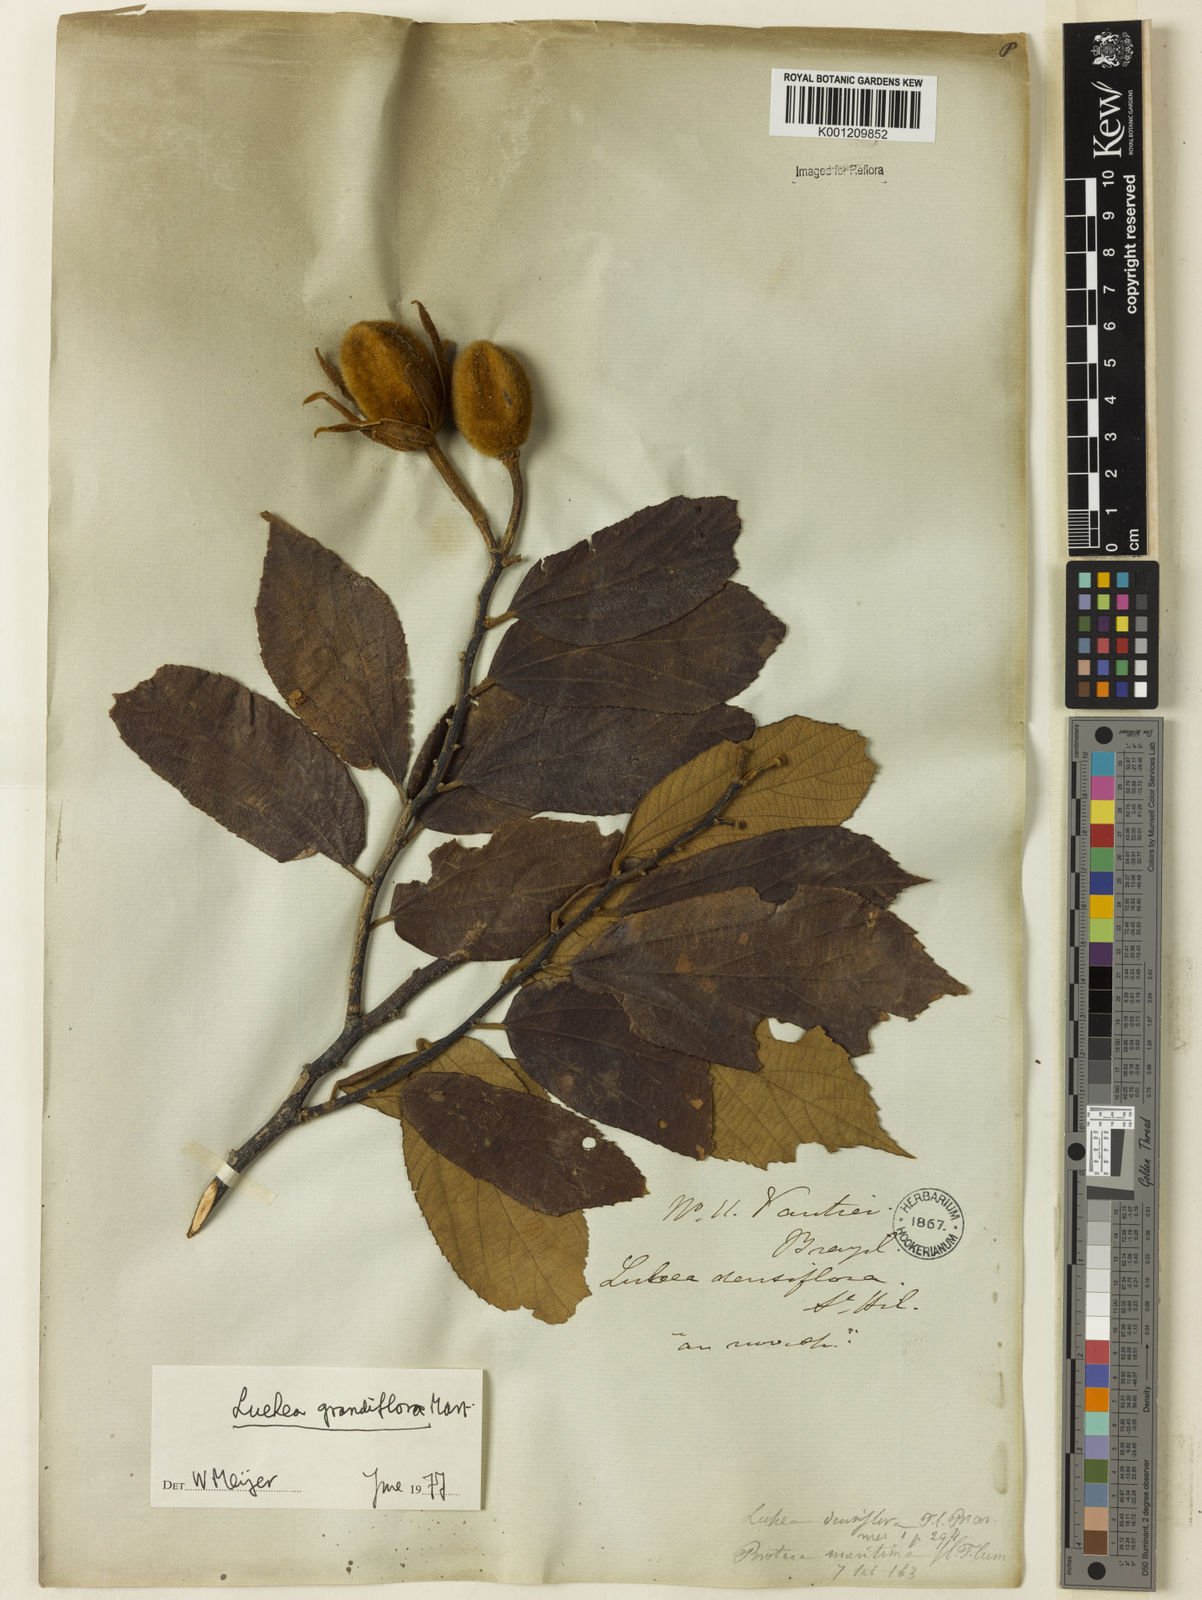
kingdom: Plantae
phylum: Tracheophyta
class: Magnoliopsida
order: Malvales
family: Malvaceae
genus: Luehea
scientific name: Luehea grandiflora
